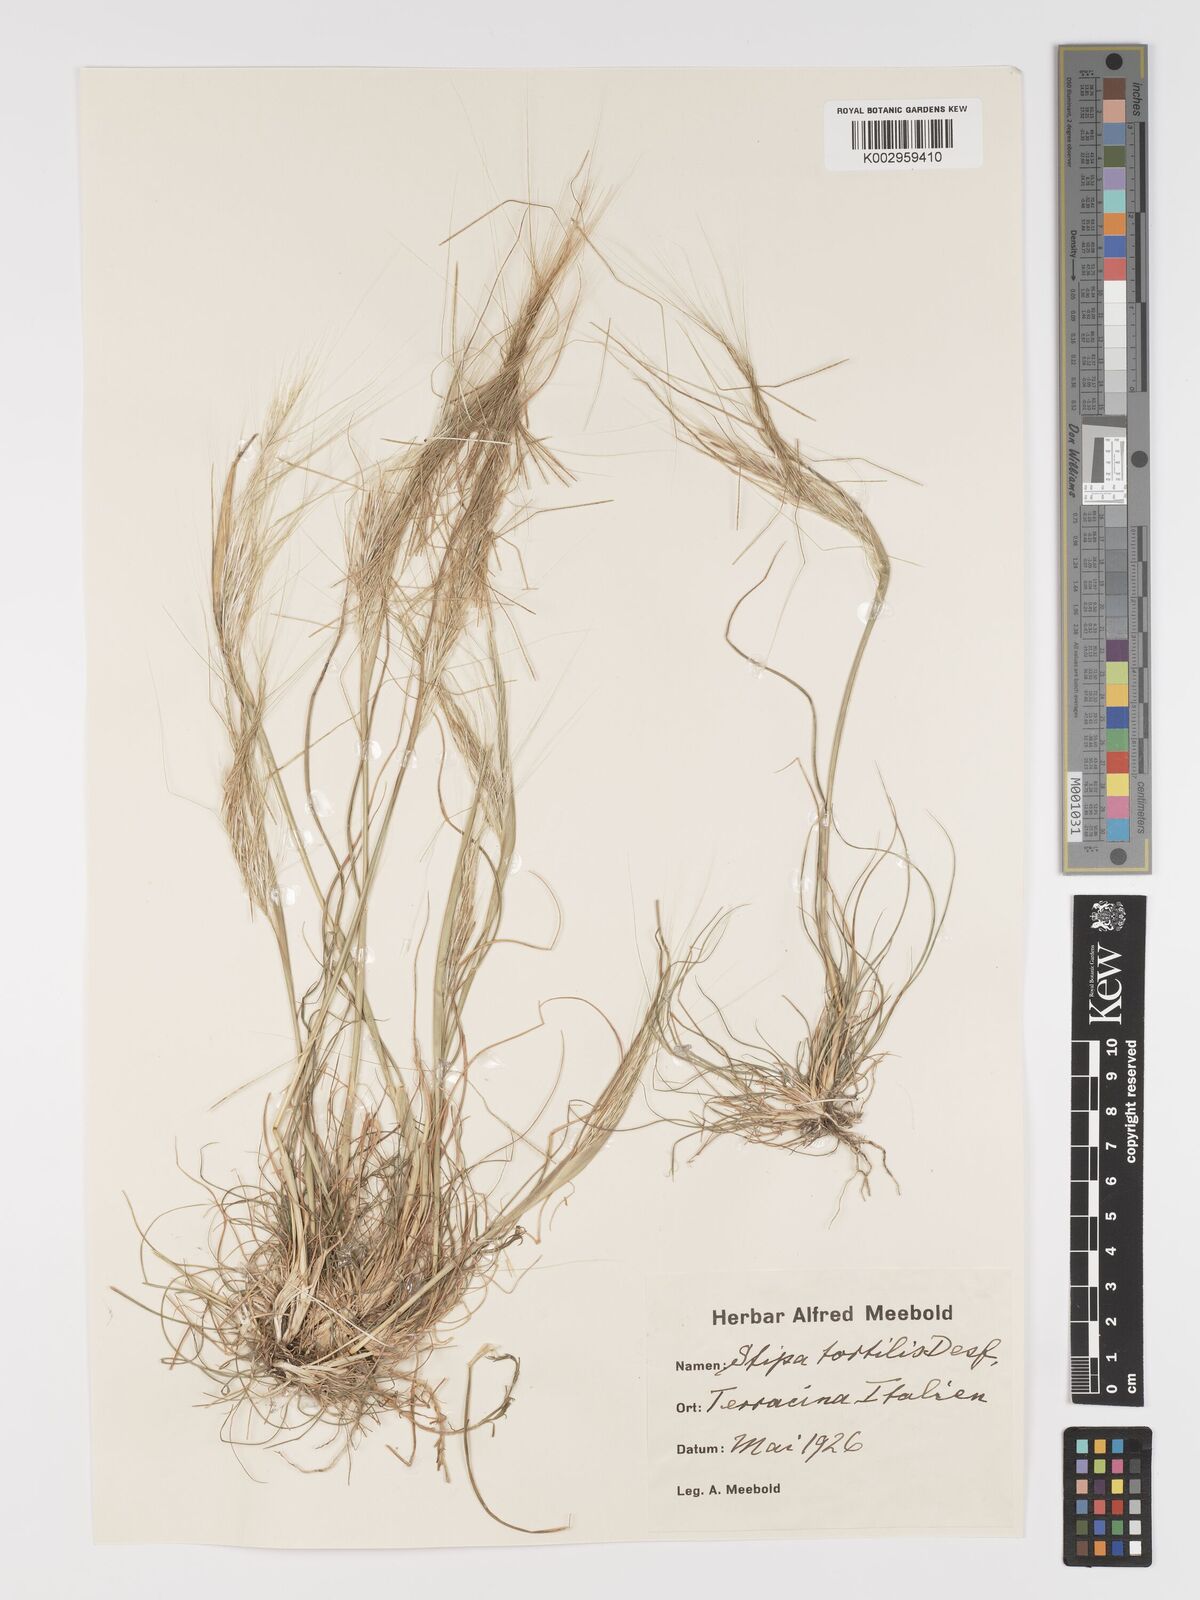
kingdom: Plantae
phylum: Tracheophyta
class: Liliopsida
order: Poales
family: Poaceae
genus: Stipa
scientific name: Stipa
